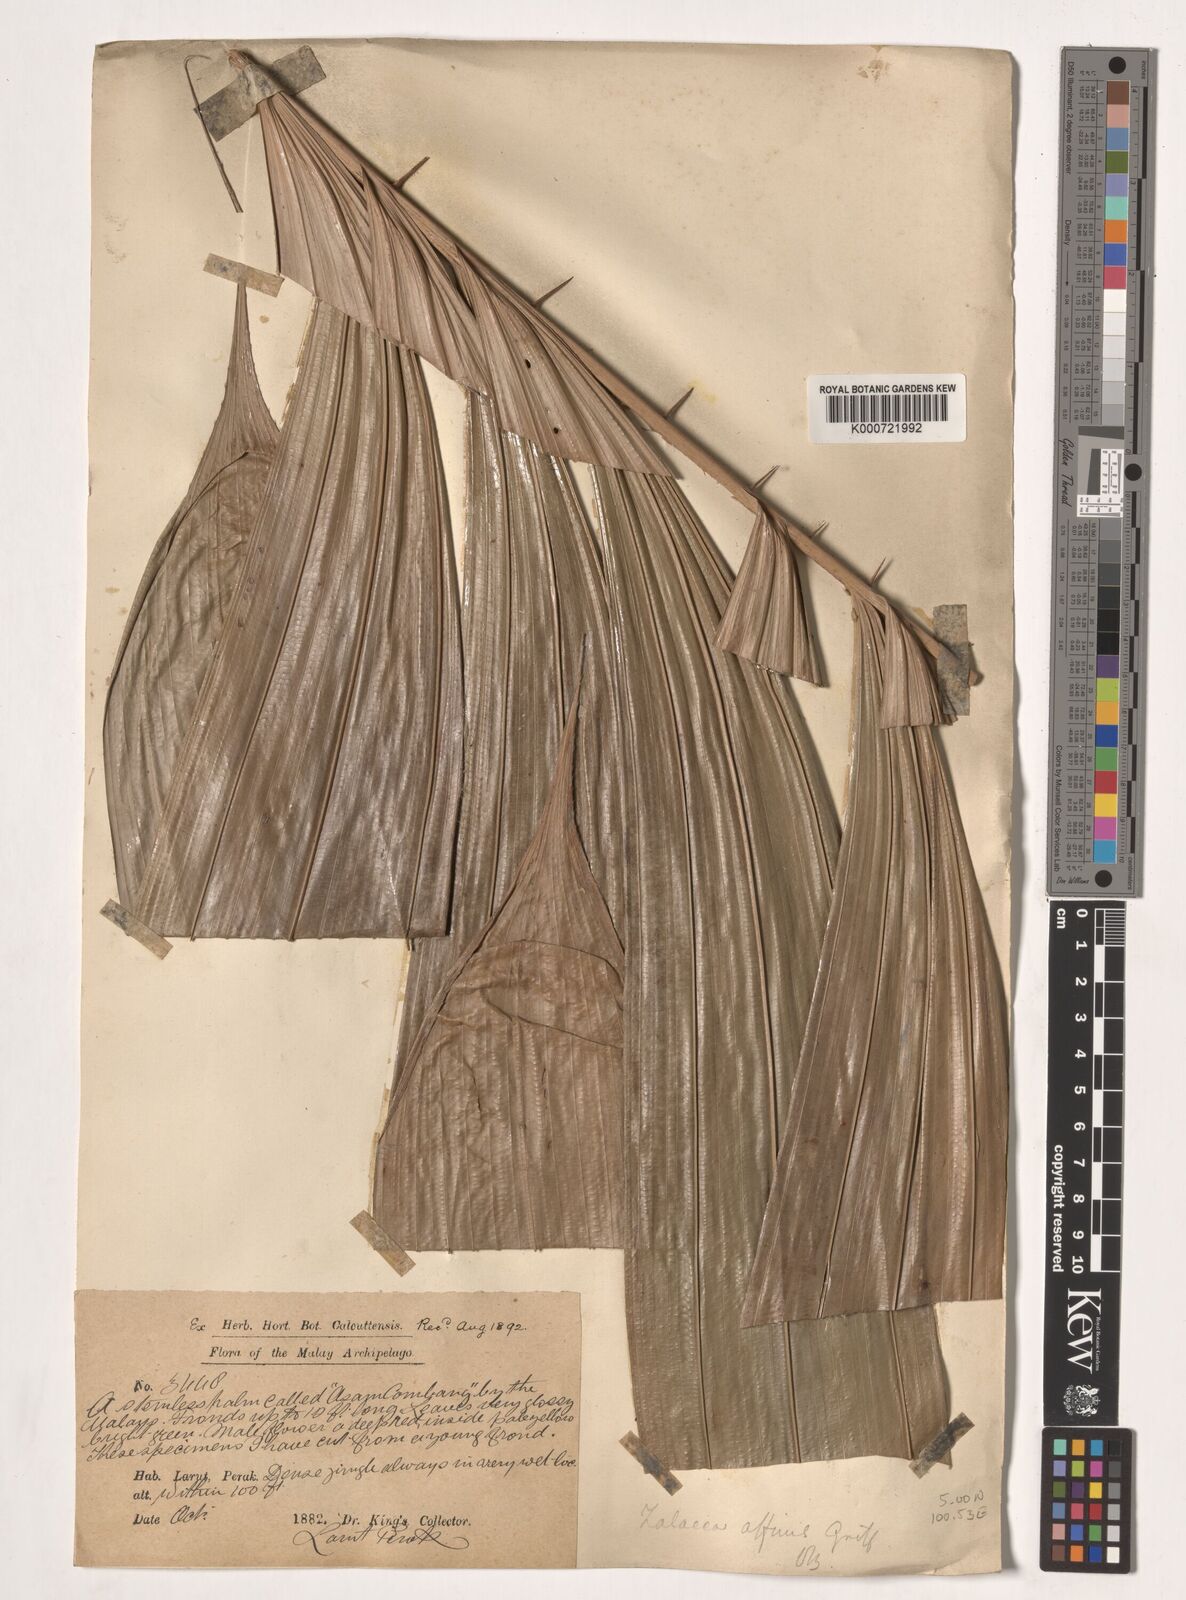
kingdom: Plantae
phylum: Tracheophyta
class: Liliopsida
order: Arecales
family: Arecaceae
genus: Salacca
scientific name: Salacca affinis
